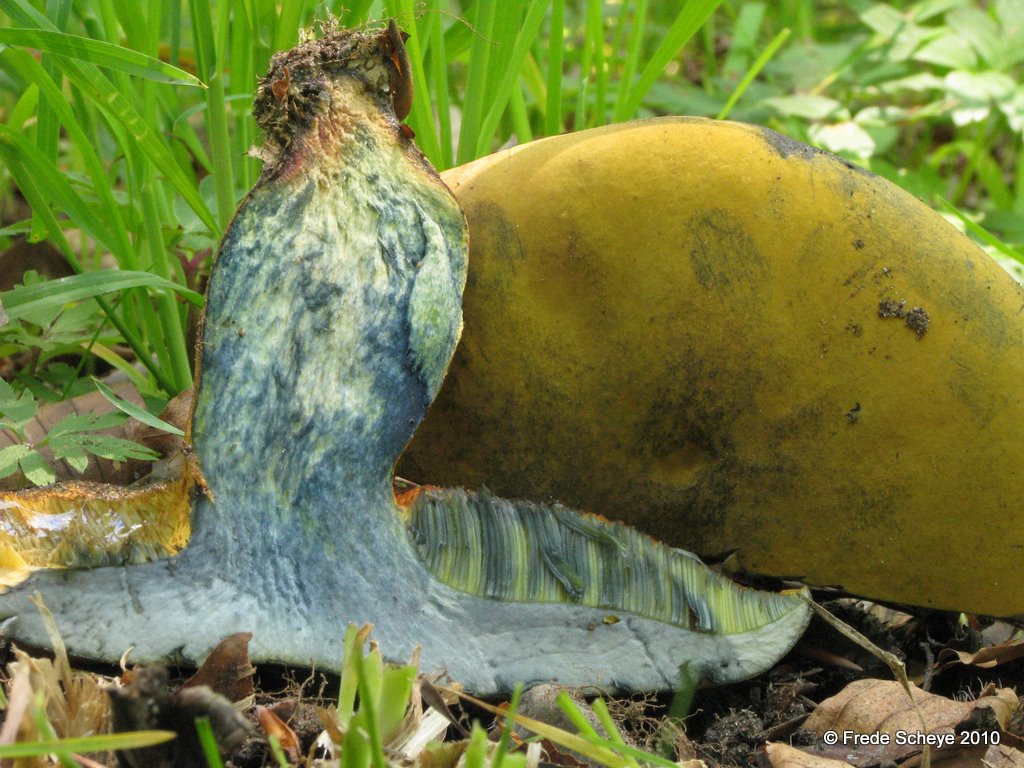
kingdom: Fungi
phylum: Basidiomycota
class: Agaricomycetes
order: Boletales
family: Boletaceae
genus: Suillellus
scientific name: Suillellus luridus
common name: netstokket indigorørhat
